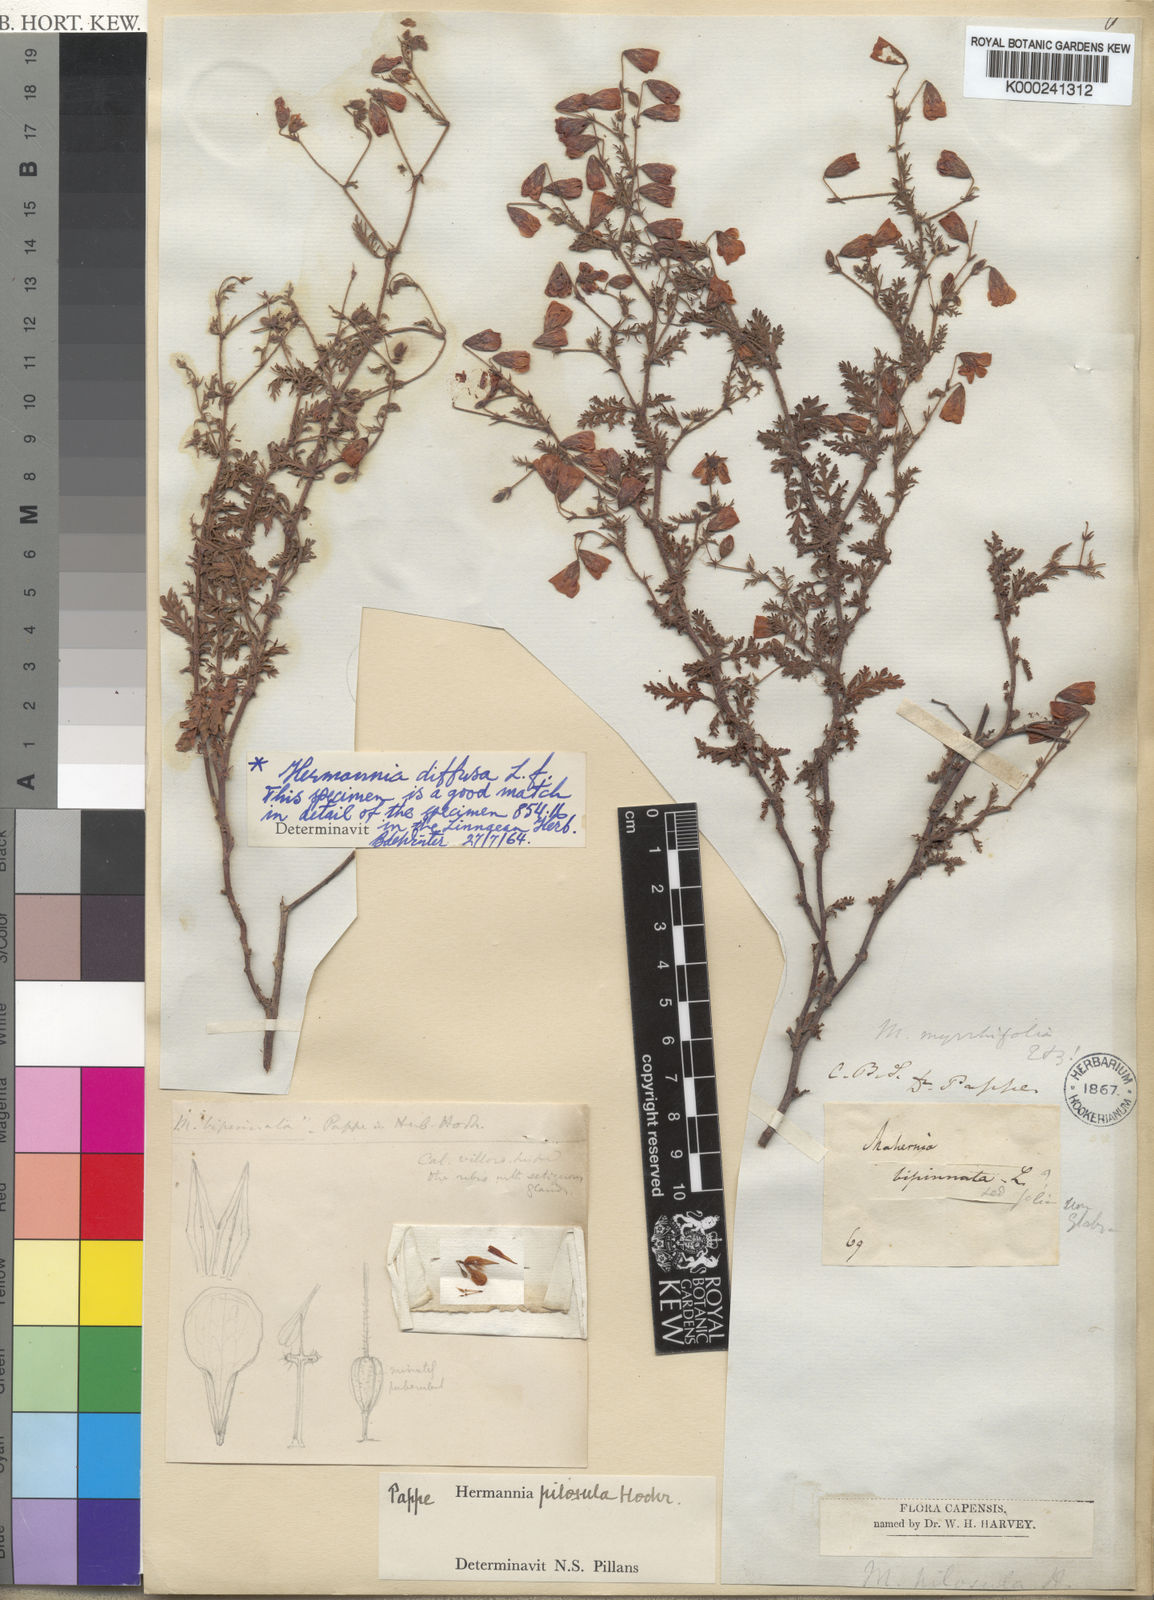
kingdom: Plantae
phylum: Tracheophyta
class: Magnoliopsida
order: Malvales
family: Malvaceae
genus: Hermannia
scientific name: Hermannia diffusa
